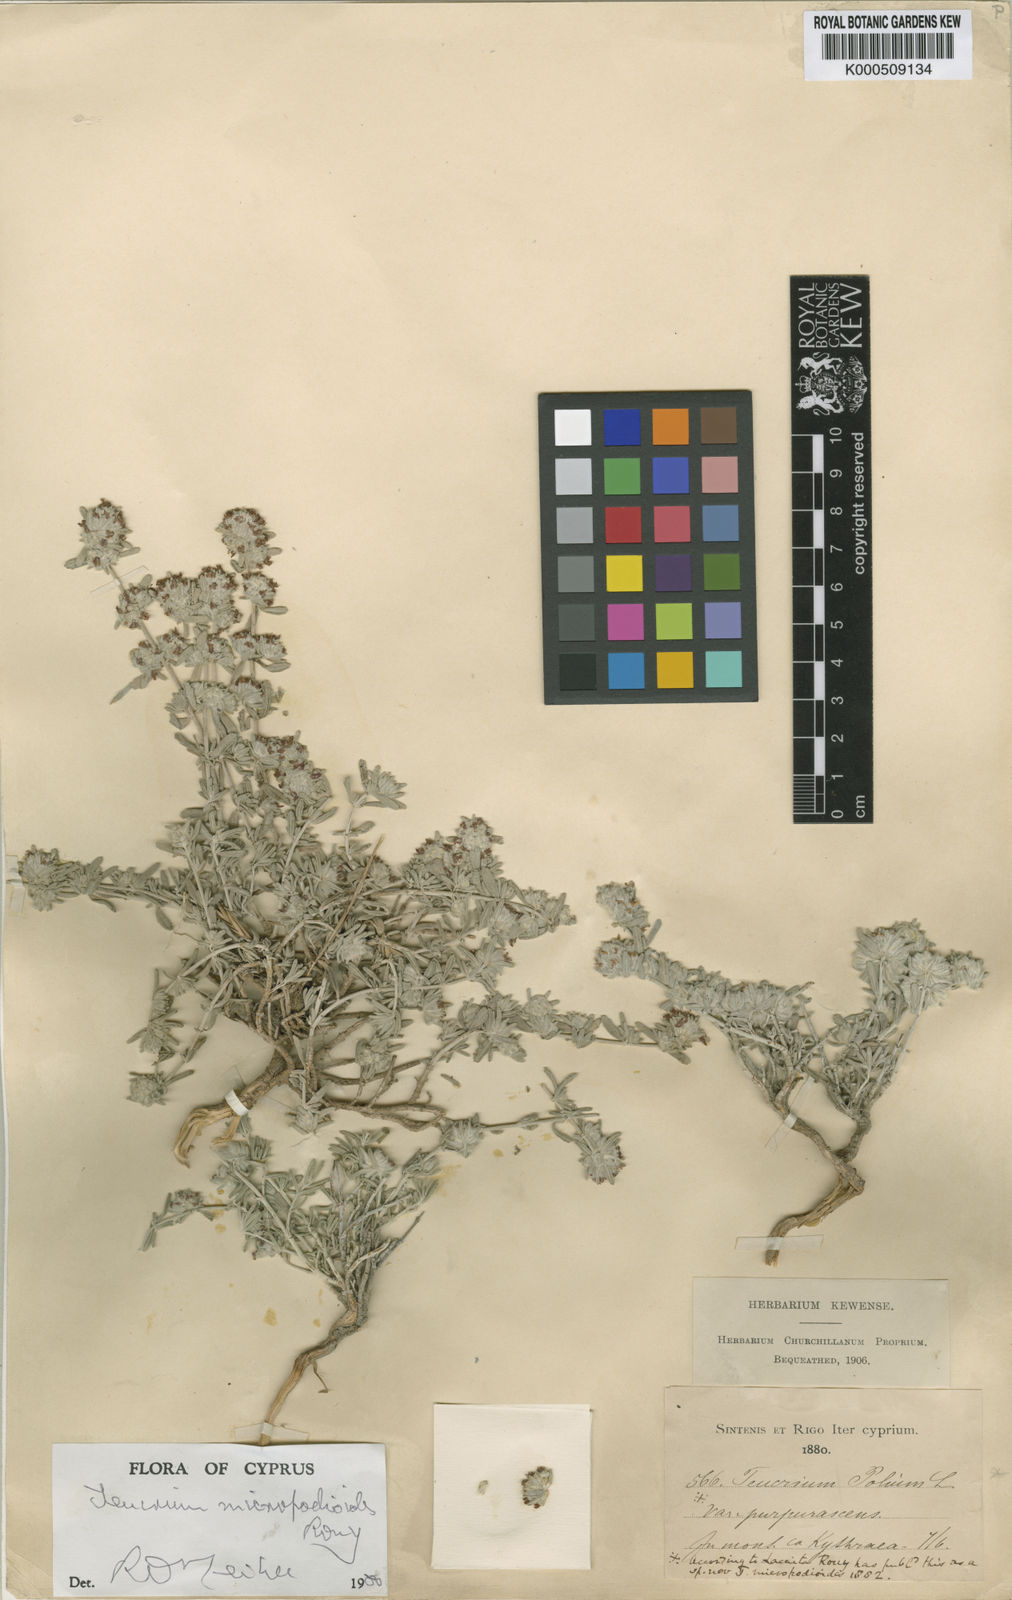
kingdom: Plantae
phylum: Tracheophyta
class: Magnoliopsida
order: Lamiales
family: Lamiaceae
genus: Teucrium
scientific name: Teucrium micropodioides
